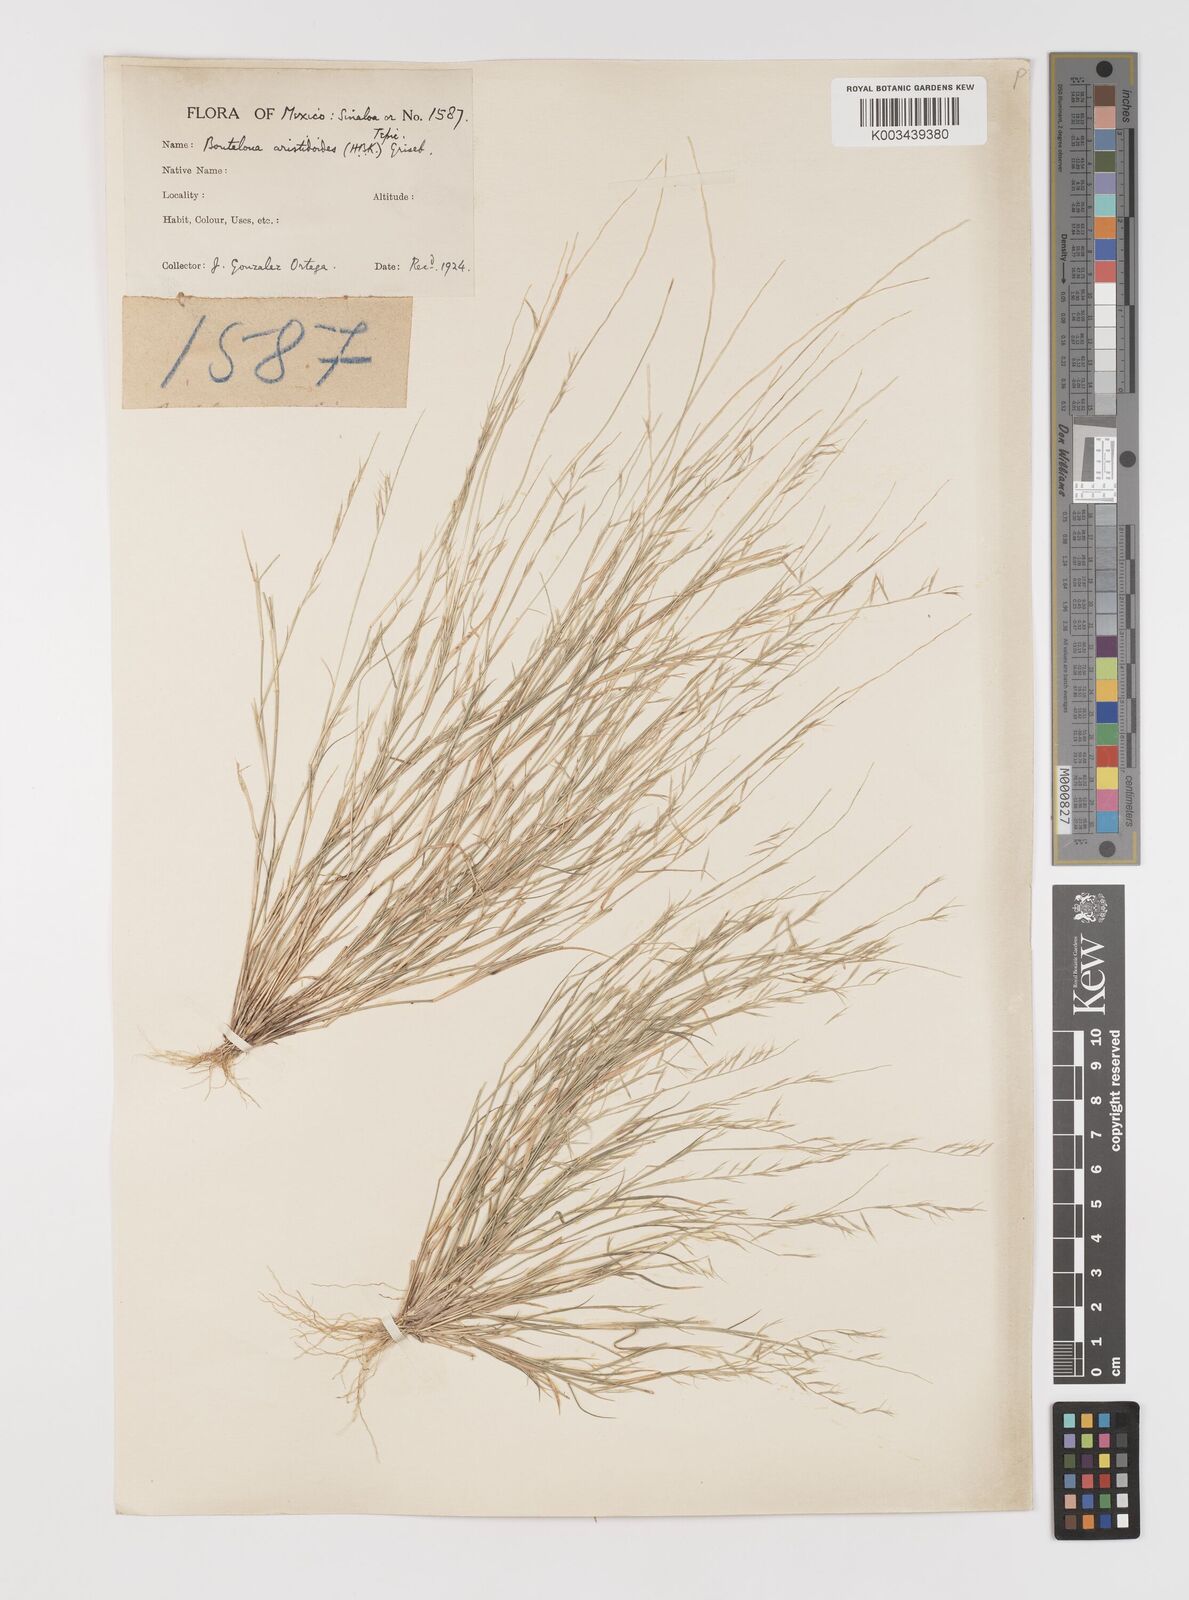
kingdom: Plantae
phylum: Tracheophyta
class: Liliopsida
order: Poales
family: Poaceae
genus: Bouteloua
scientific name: Bouteloua aristidoides
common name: Needle grama
